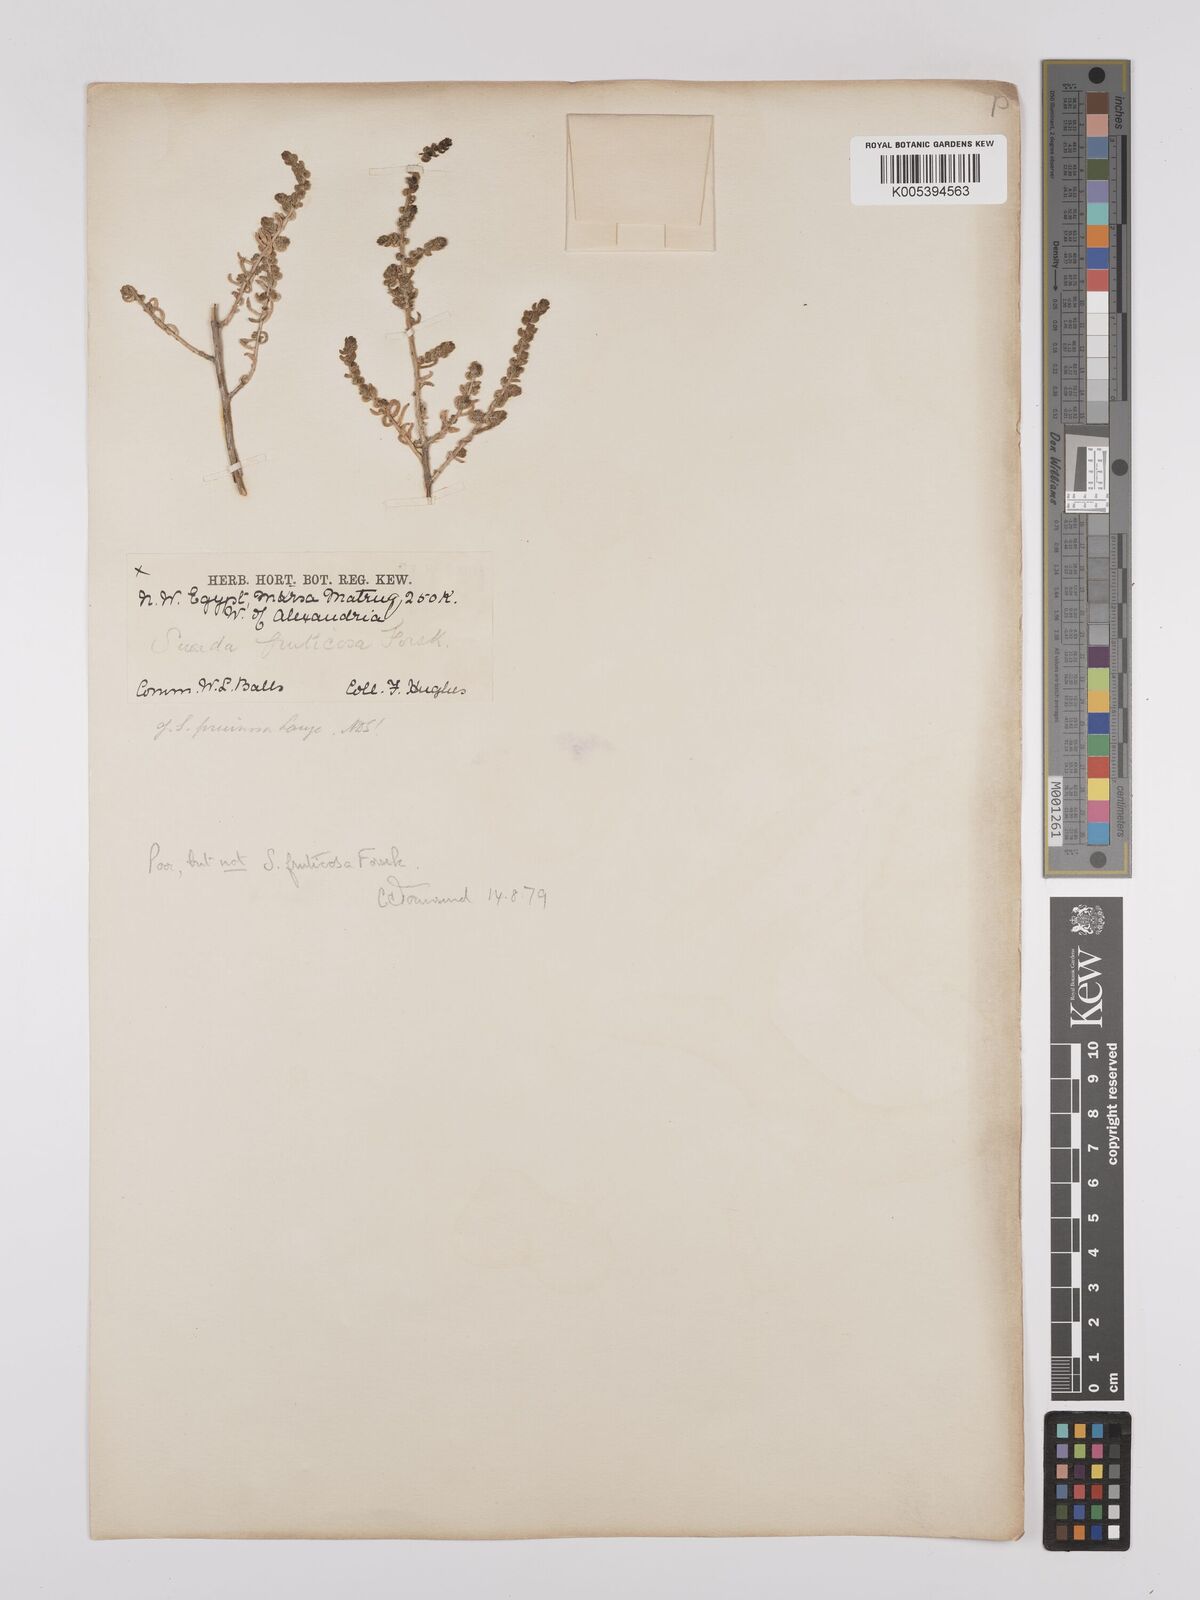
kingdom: Plantae
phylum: Tracheophyta
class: Magnoliopsida
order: Caryophyllales
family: Amaranthaceae
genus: Suaeda
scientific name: Suaeda
